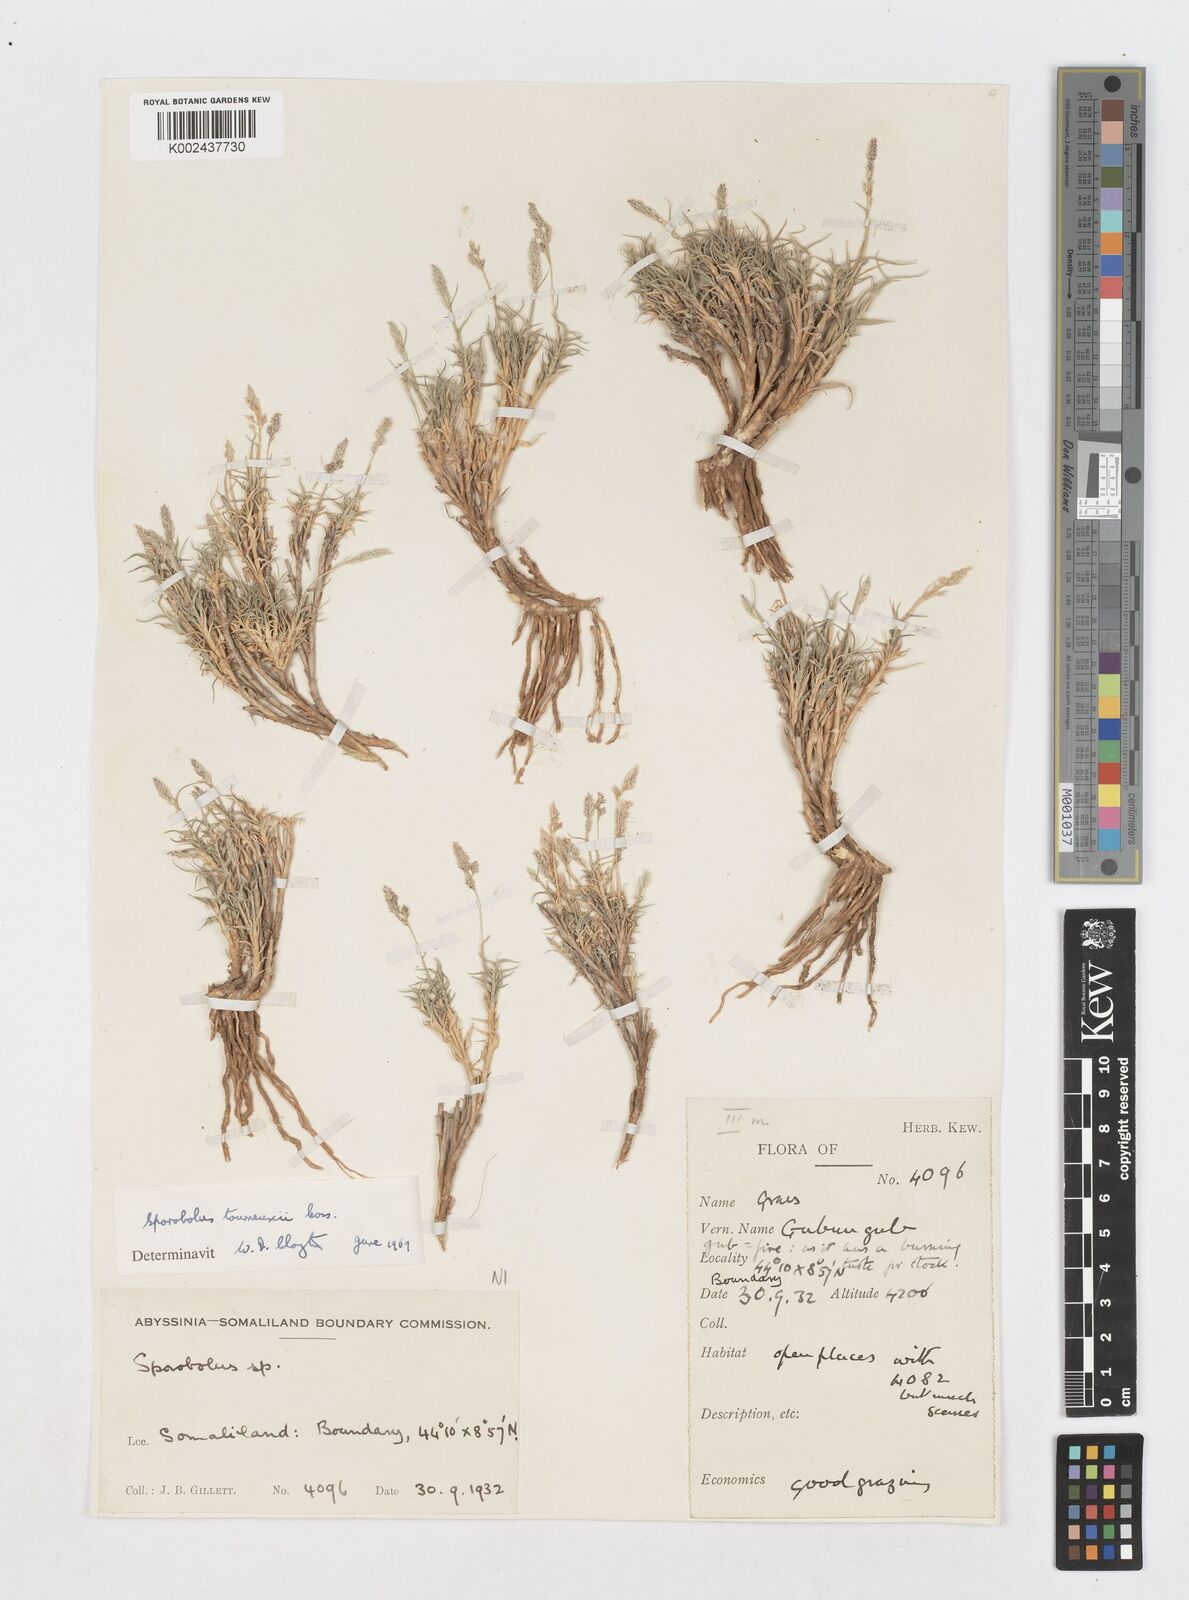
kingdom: Plantae
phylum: Tracheophyta
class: Liliopsida
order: Poales
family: Poaceae
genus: Sporobolus
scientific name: Sporobolus tourneuxii
